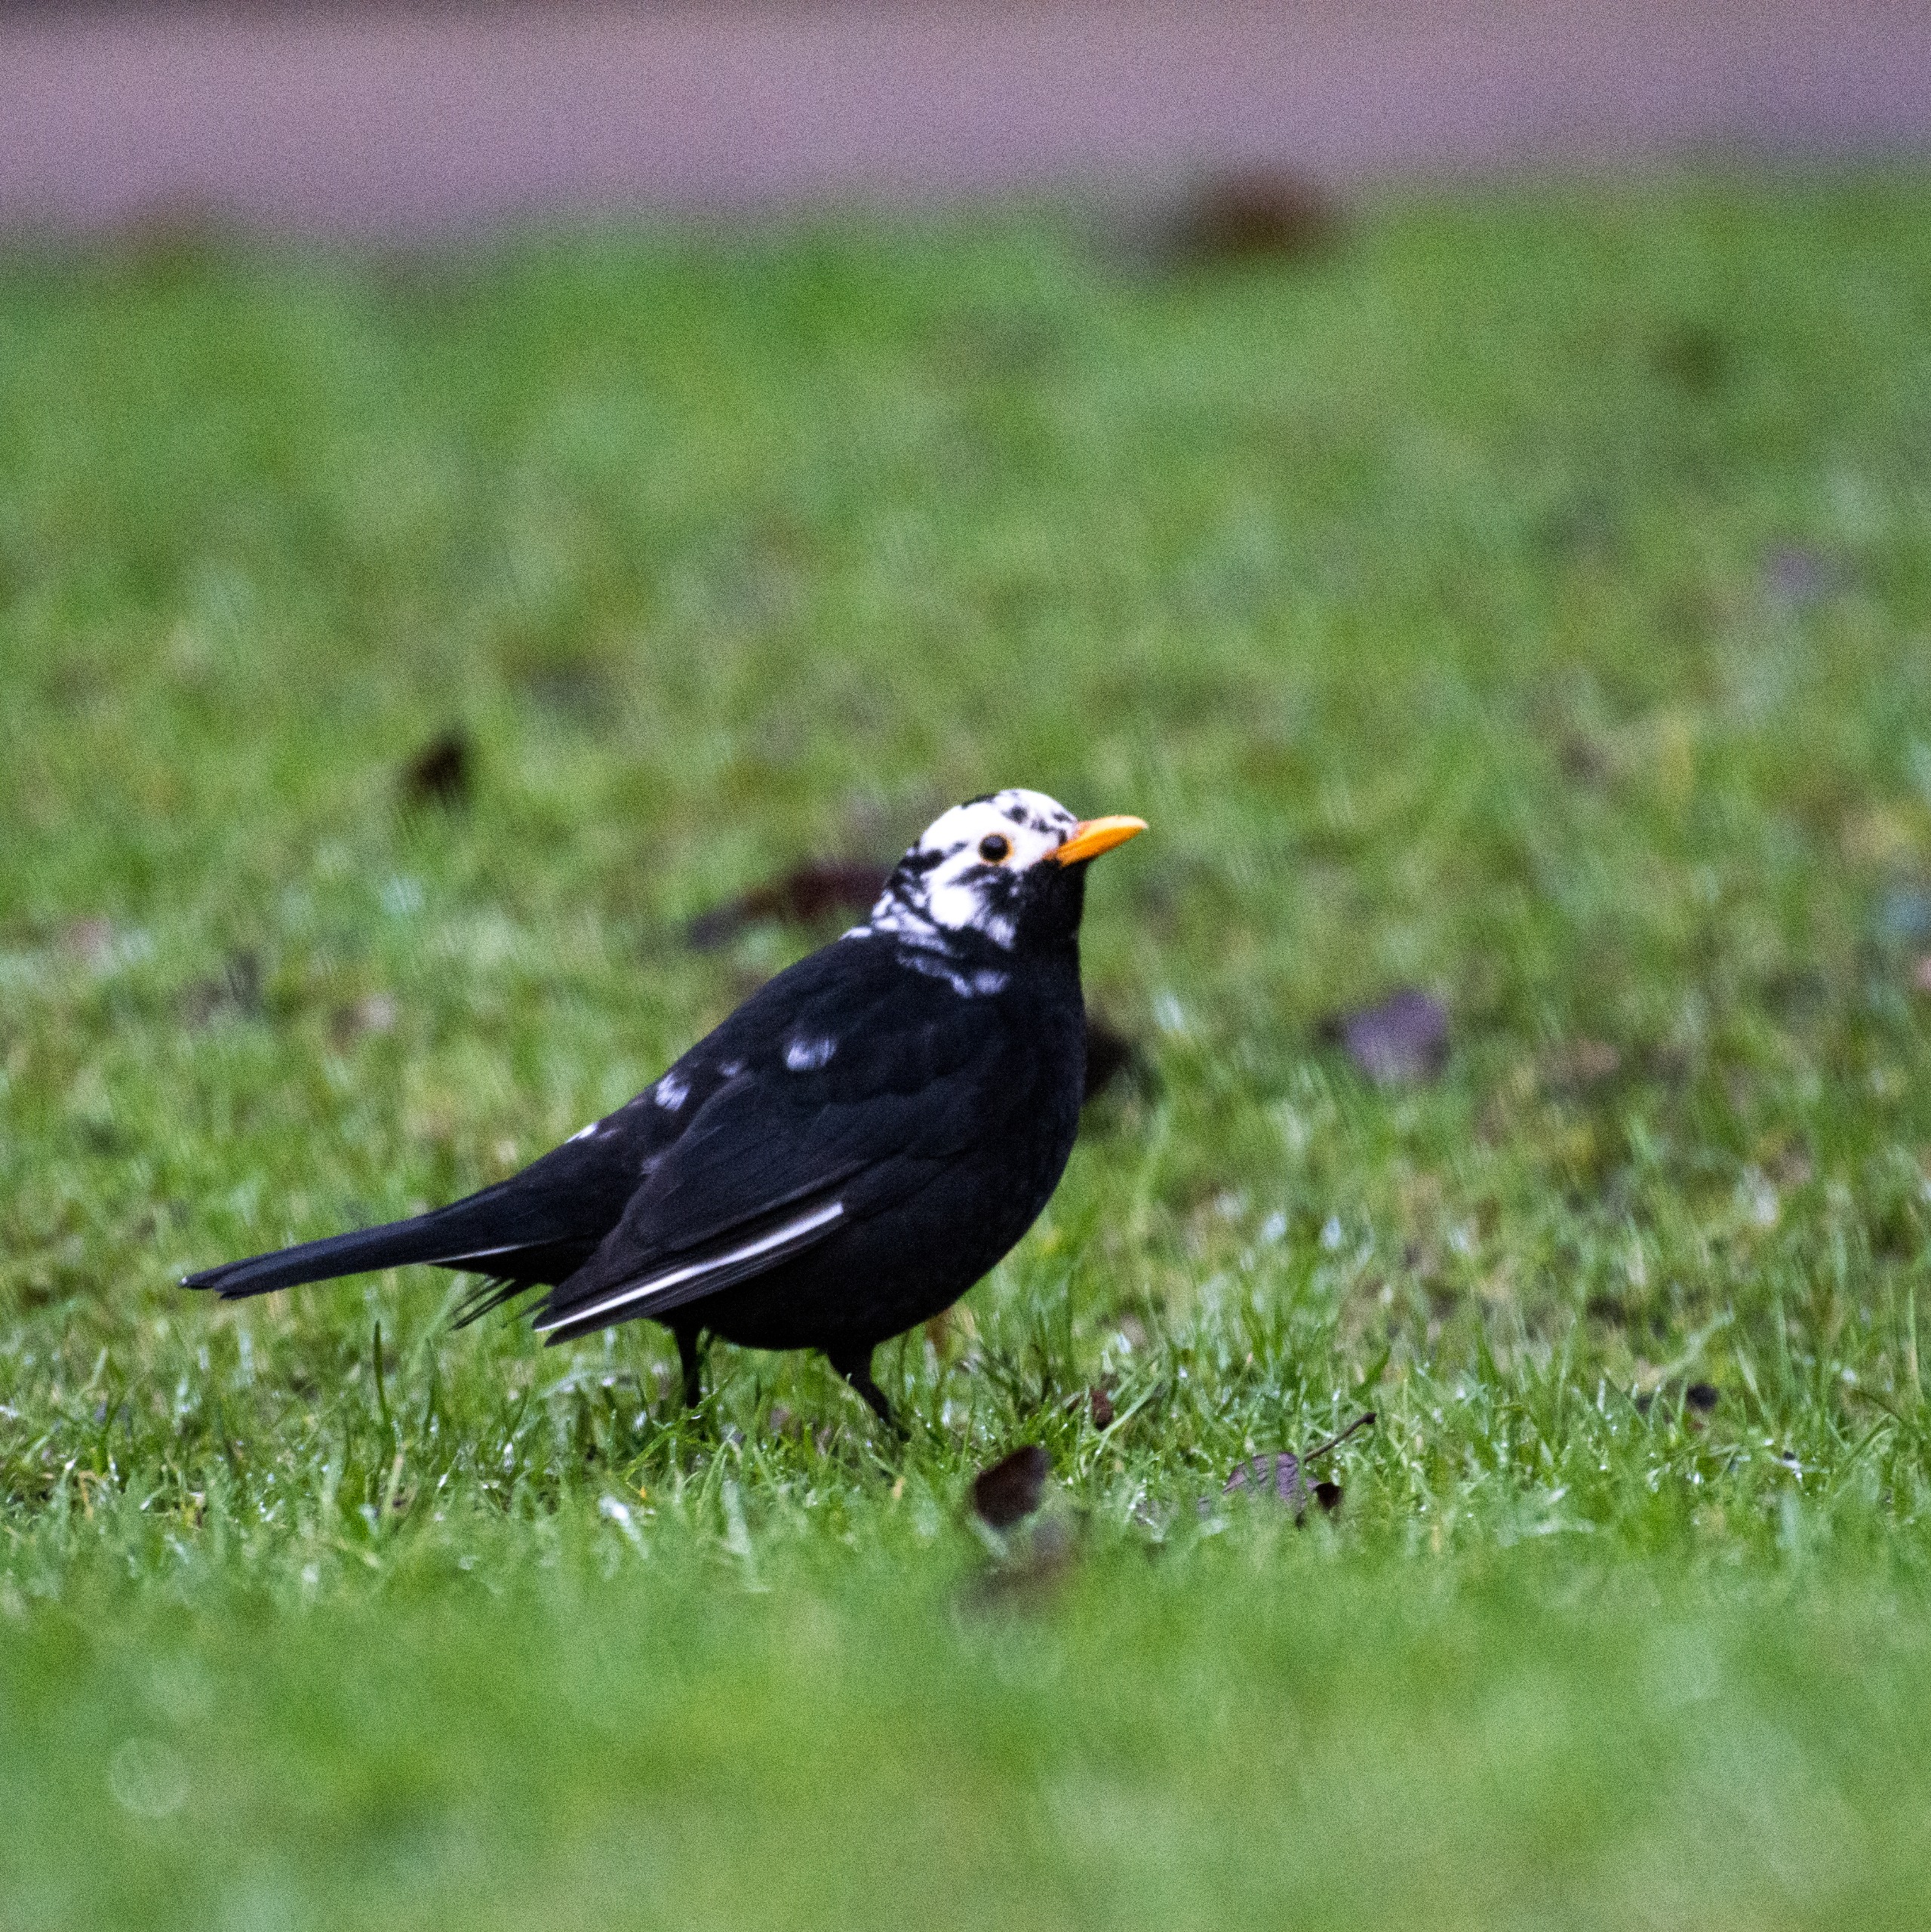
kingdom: Animalia
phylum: Chordata
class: Aves
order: Passeriformes
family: Turdidae
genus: Turdus
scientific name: Turdus merula
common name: Solsort
